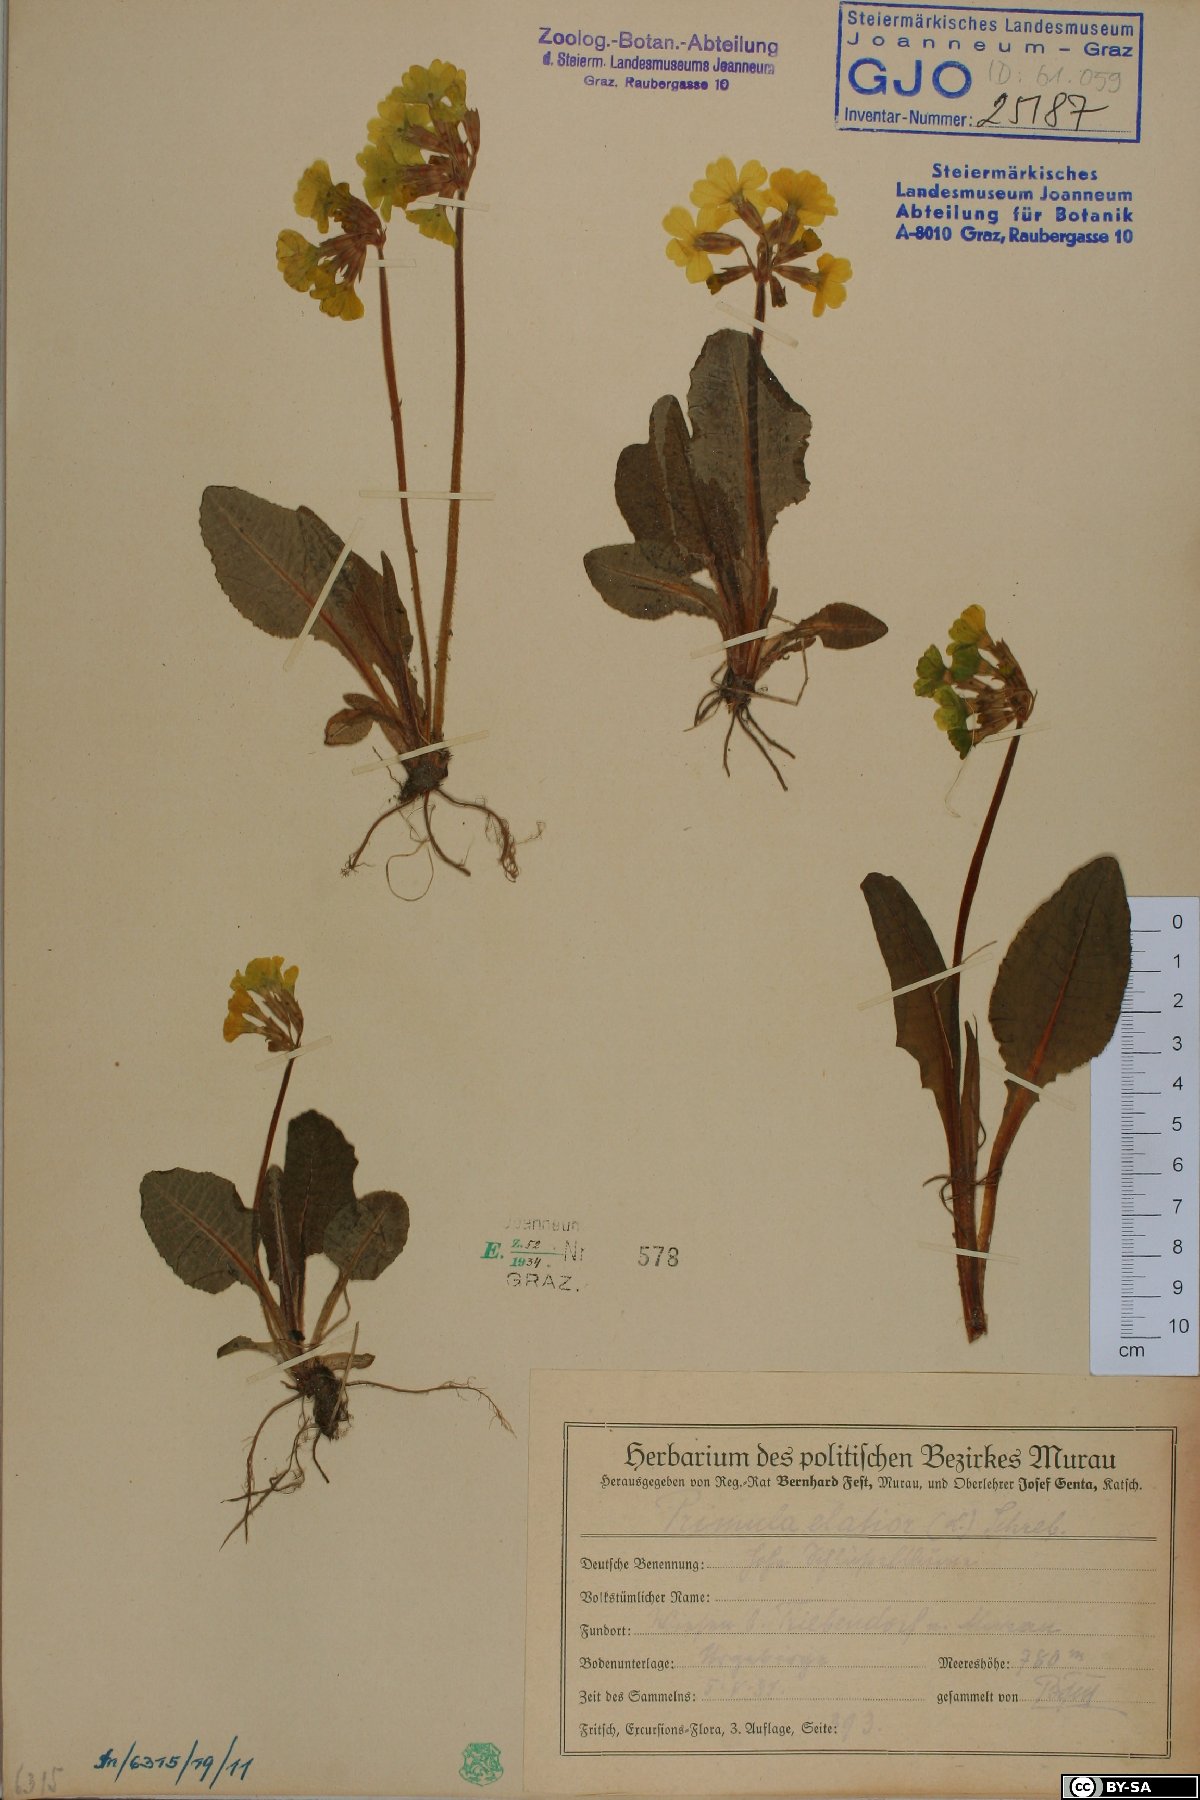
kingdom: Plantae
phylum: Tracheophyta
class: Magnoliopsida
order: Ericales
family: Primulaceae
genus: Primula
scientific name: Primula elatior
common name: Oxlip
